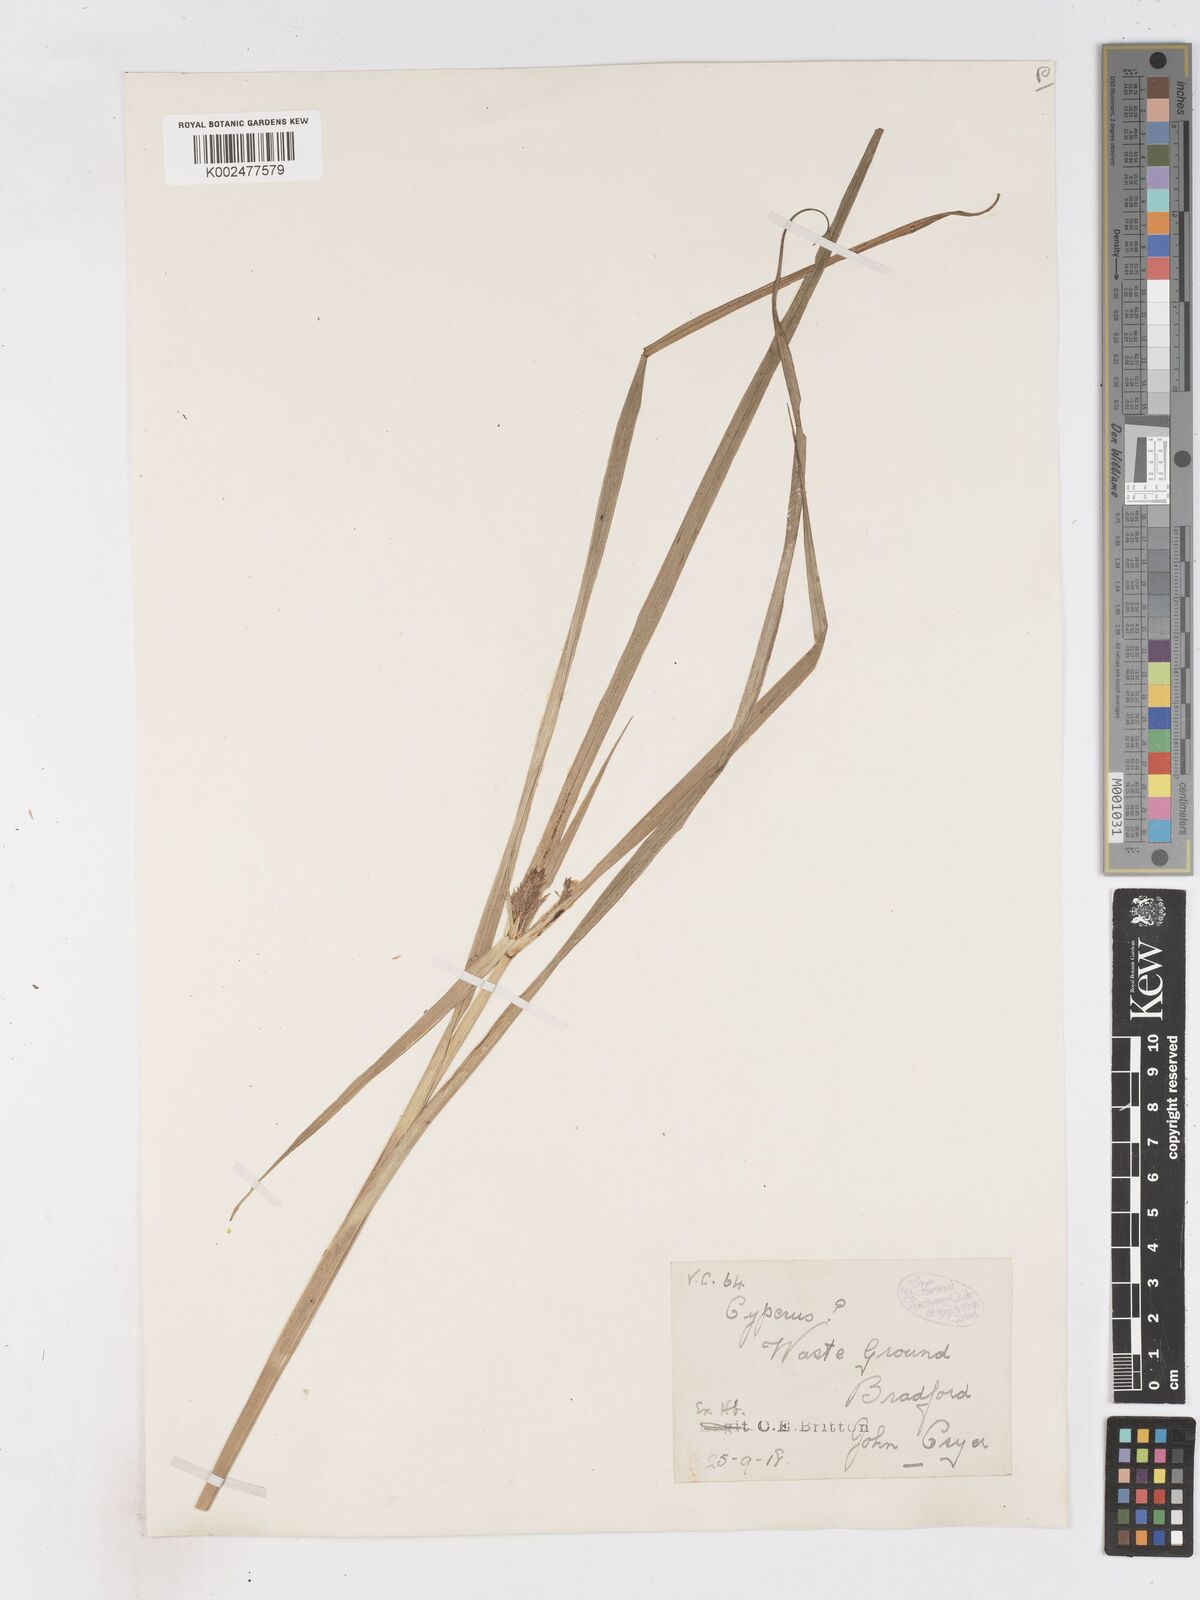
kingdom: Plantae
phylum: Tracheophyta
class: Liliopsida
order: Poales
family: Cyperaceae
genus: Cyperus
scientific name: Cyperus congestus
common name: Dense flat sedge
